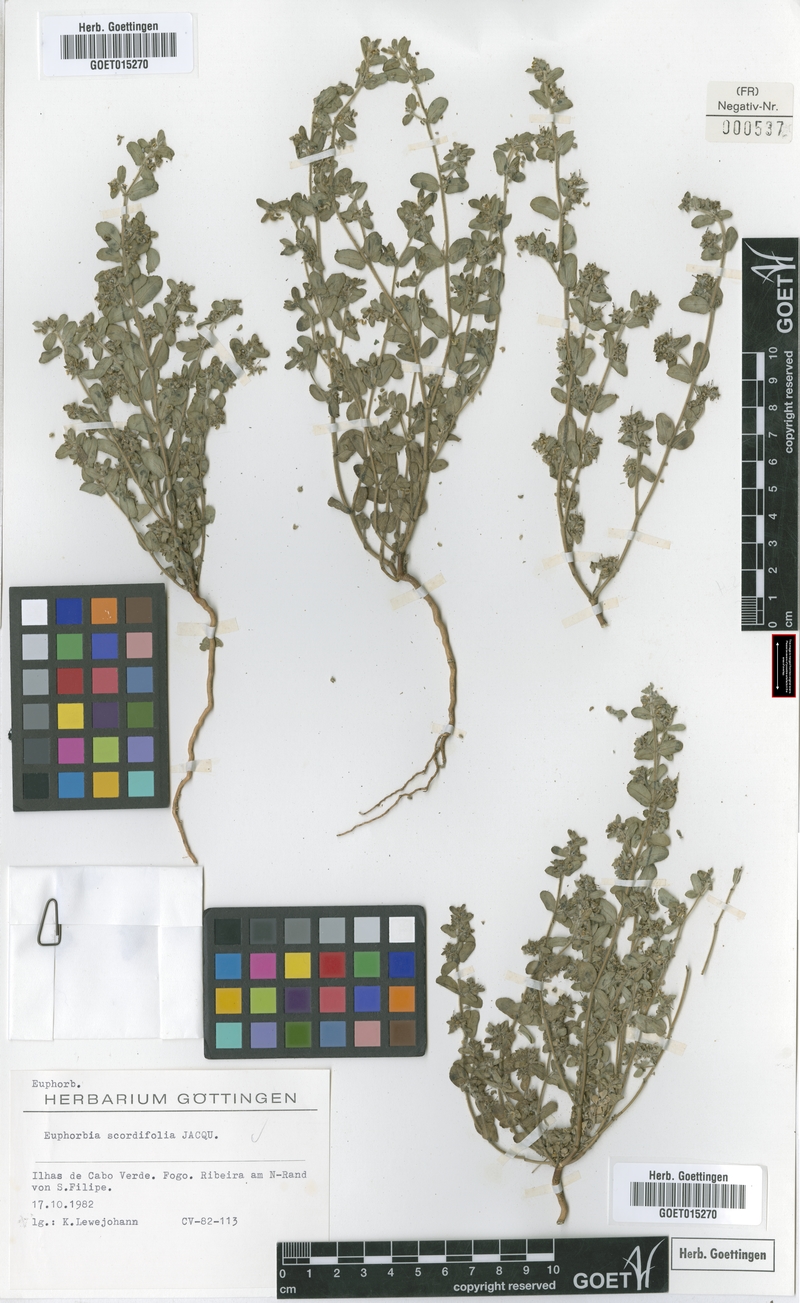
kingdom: Plantae
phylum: Tracheophyta
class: Magnoliopsida
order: Malpighiales
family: Euphorbiaceae
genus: Euphorbia
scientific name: Euphorbia scordiifolia
